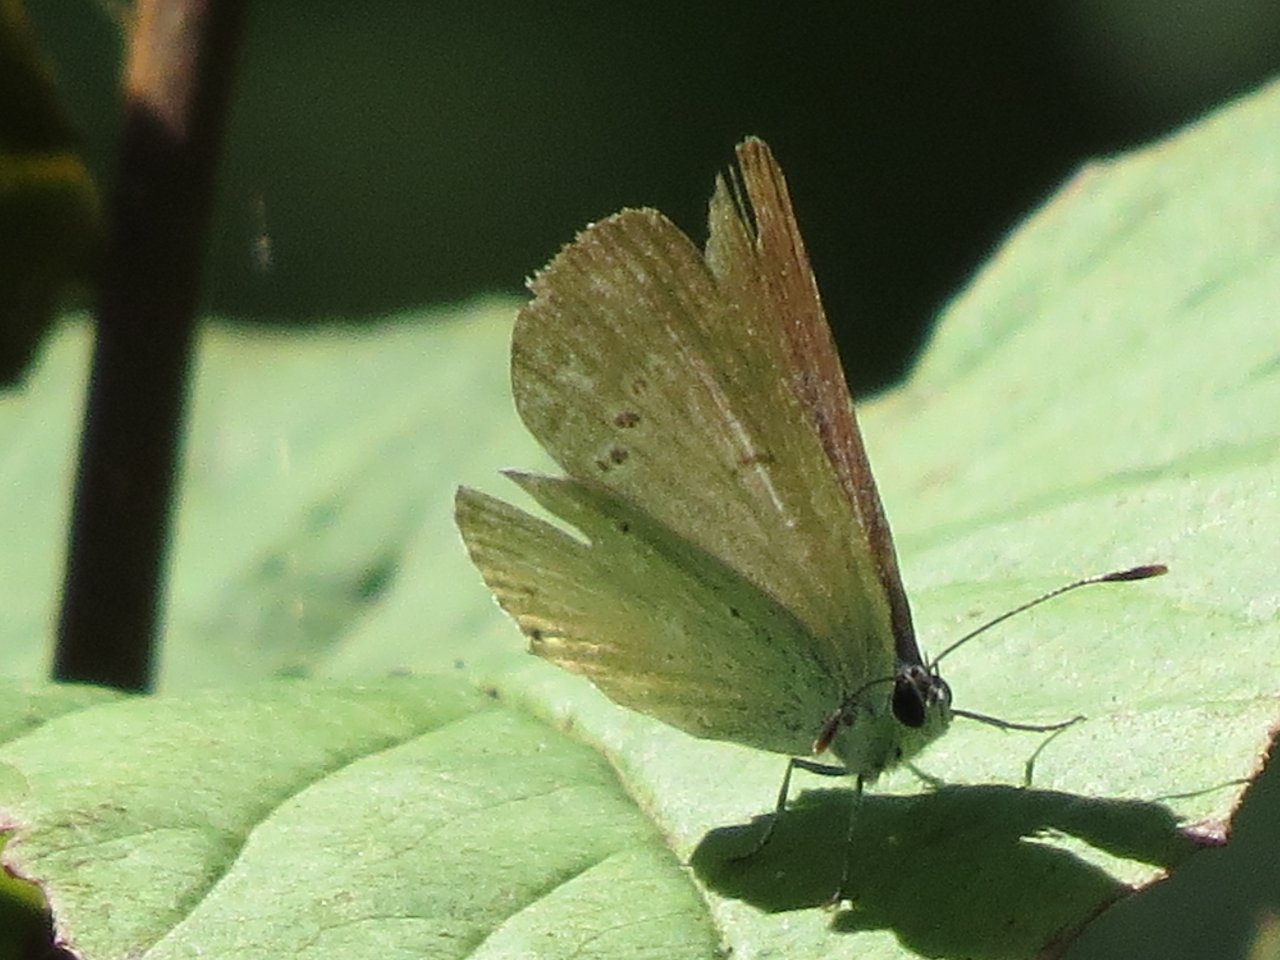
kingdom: Animalia
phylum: Arthropoda
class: Insecta
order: Lepidoptera
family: Lycaenidae
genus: Elkalyce
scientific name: Elkalyce amyntula
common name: Western Tailed-Blue
